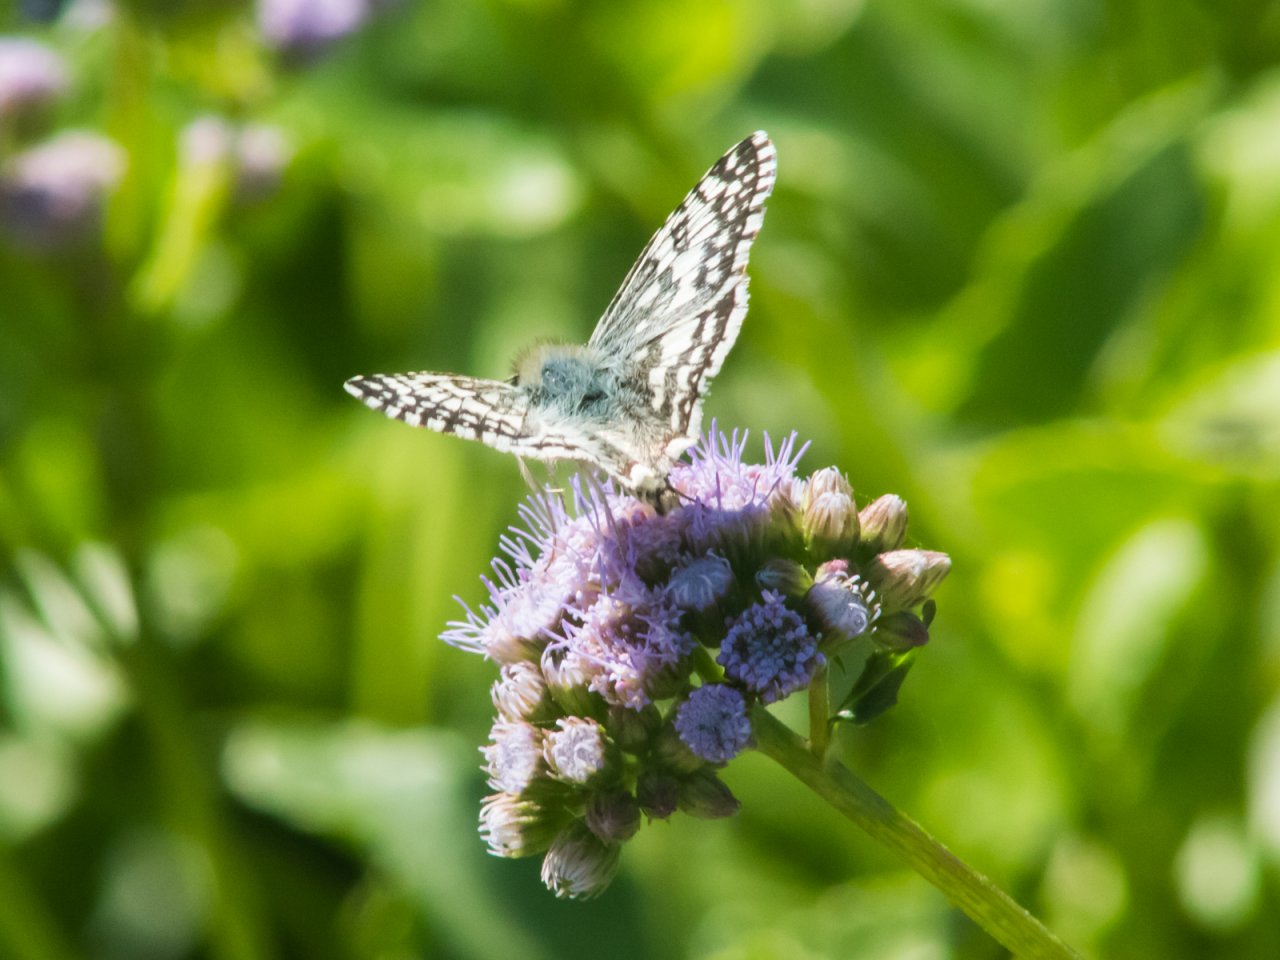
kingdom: Animalia
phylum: Arthropoda
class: Insecta
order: Lepidoptera
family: Hesperiidae
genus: Pyrgus
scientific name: Pyrgus
